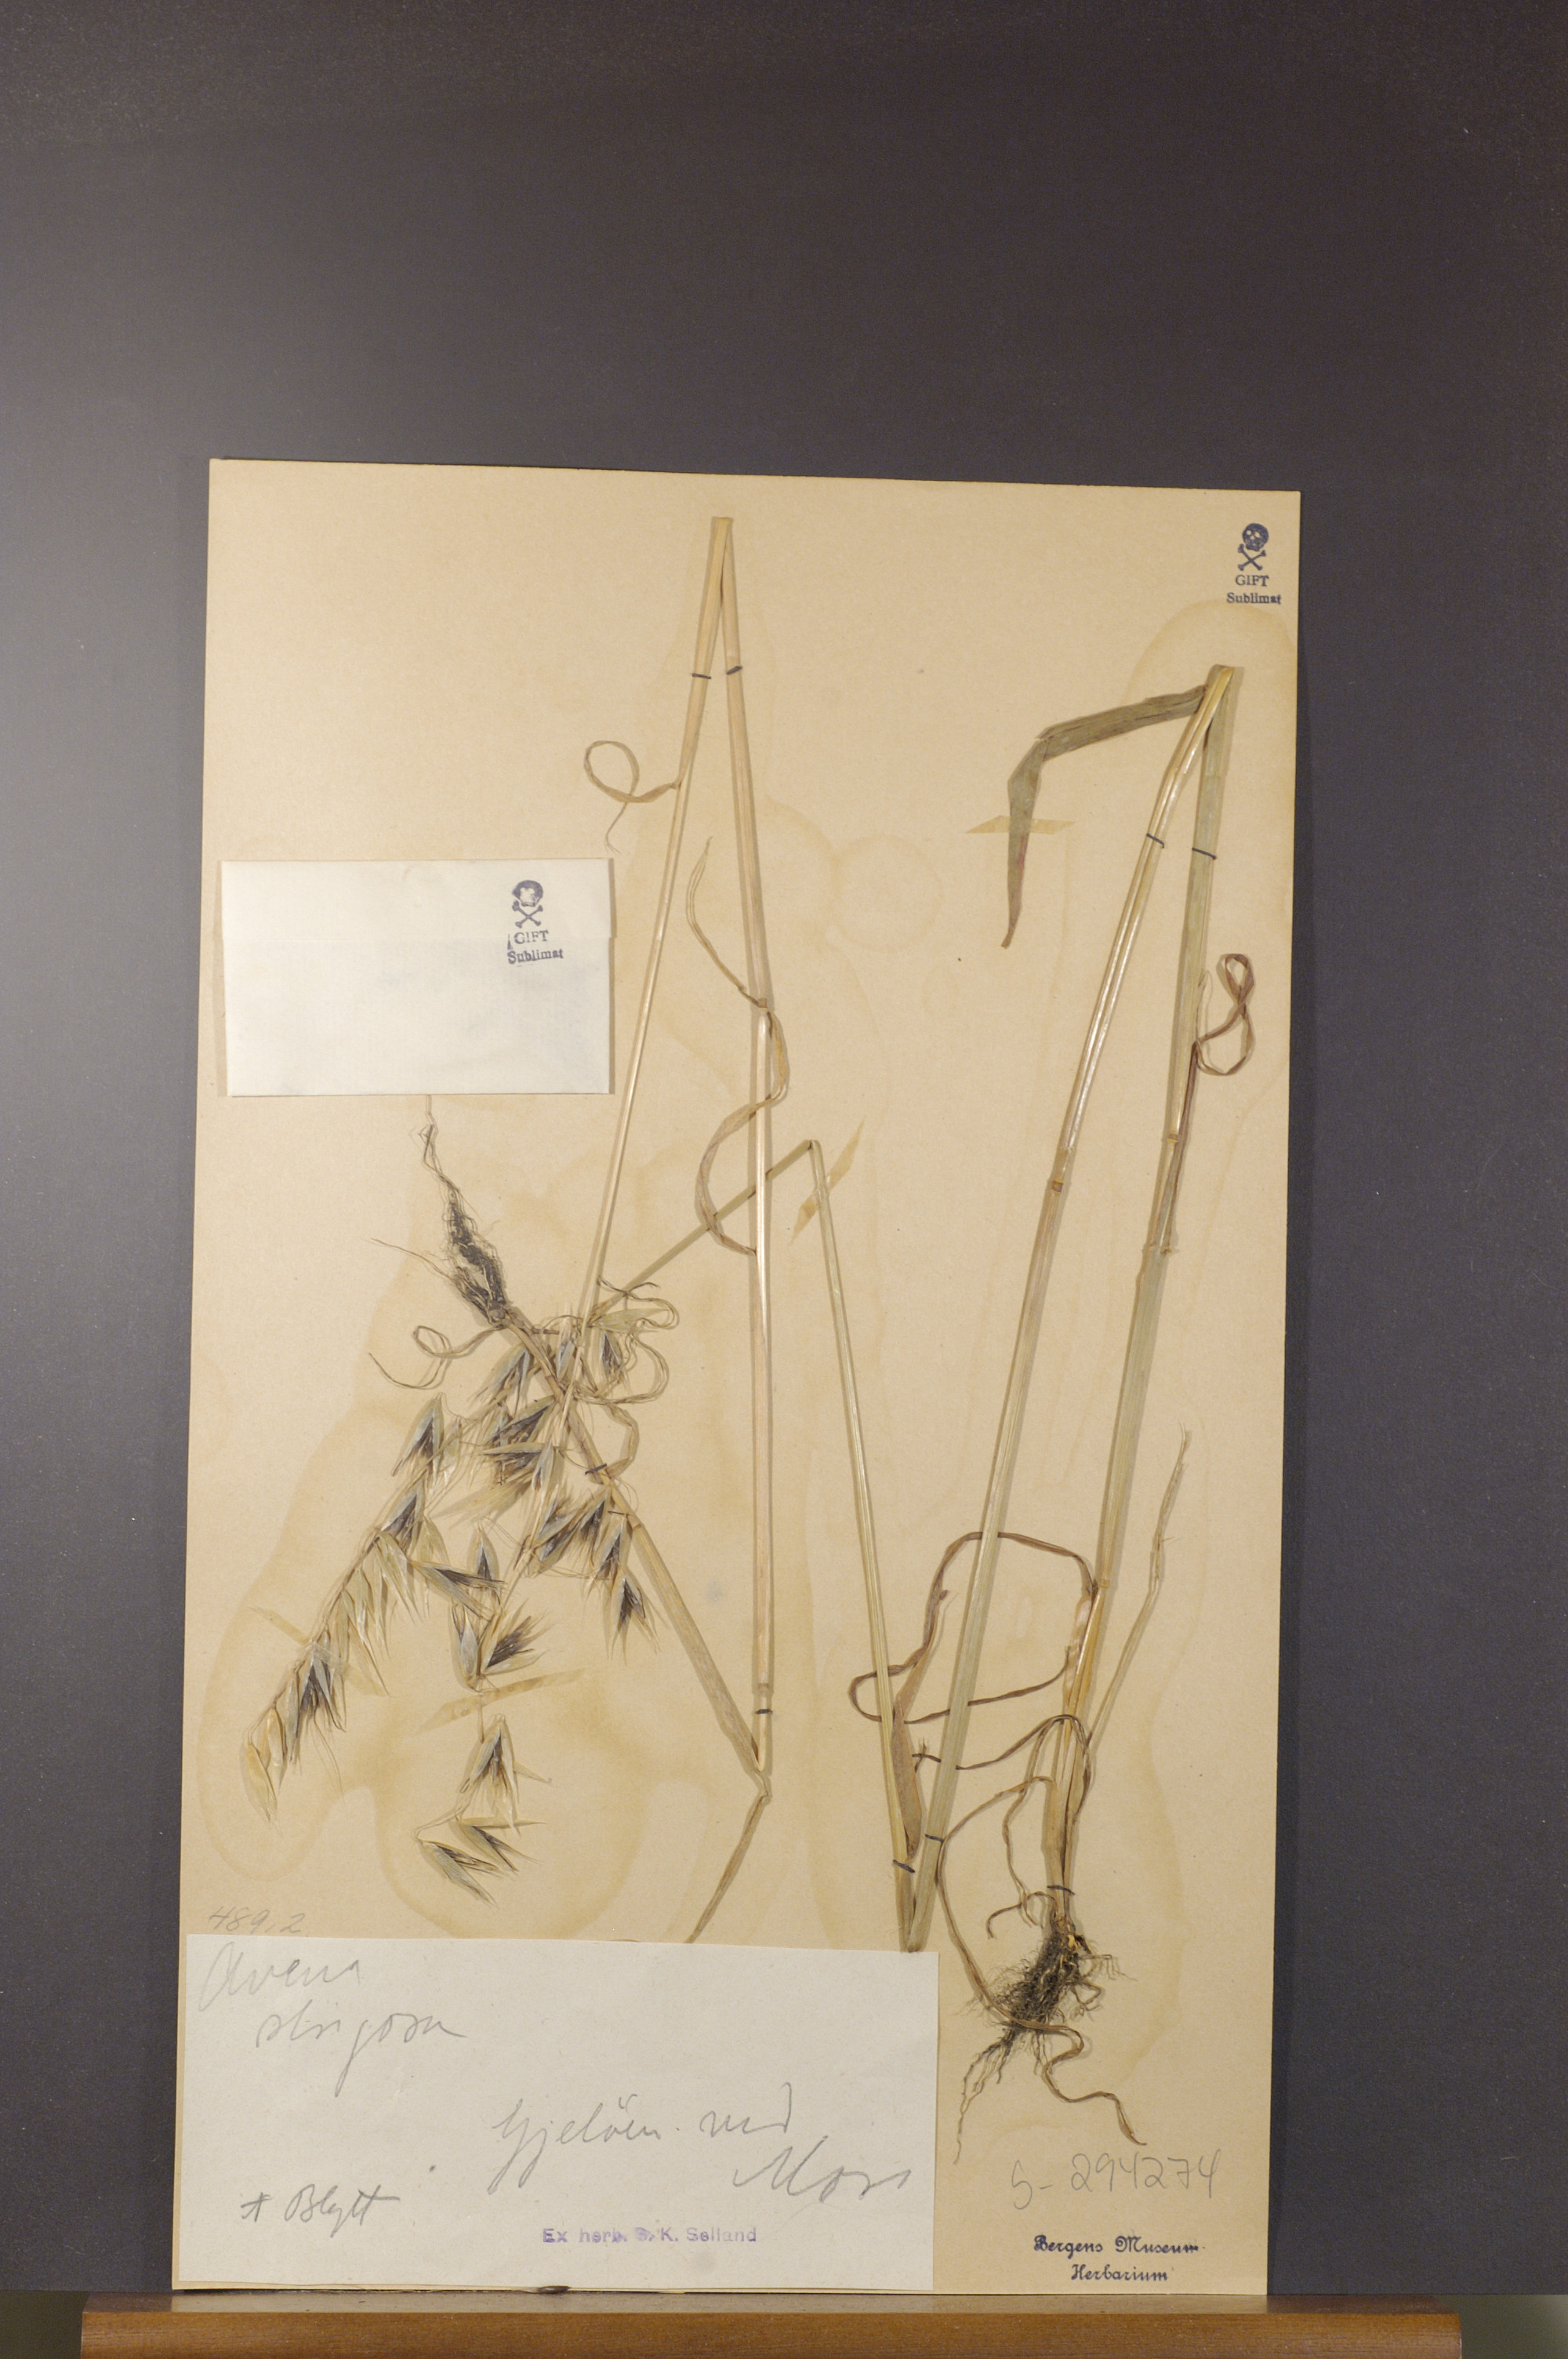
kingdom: Plantae
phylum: Tracheophyta
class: Liliopsida
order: Poales
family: Poaceae
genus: Avena
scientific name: Avena strigosa
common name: Bristle oat
